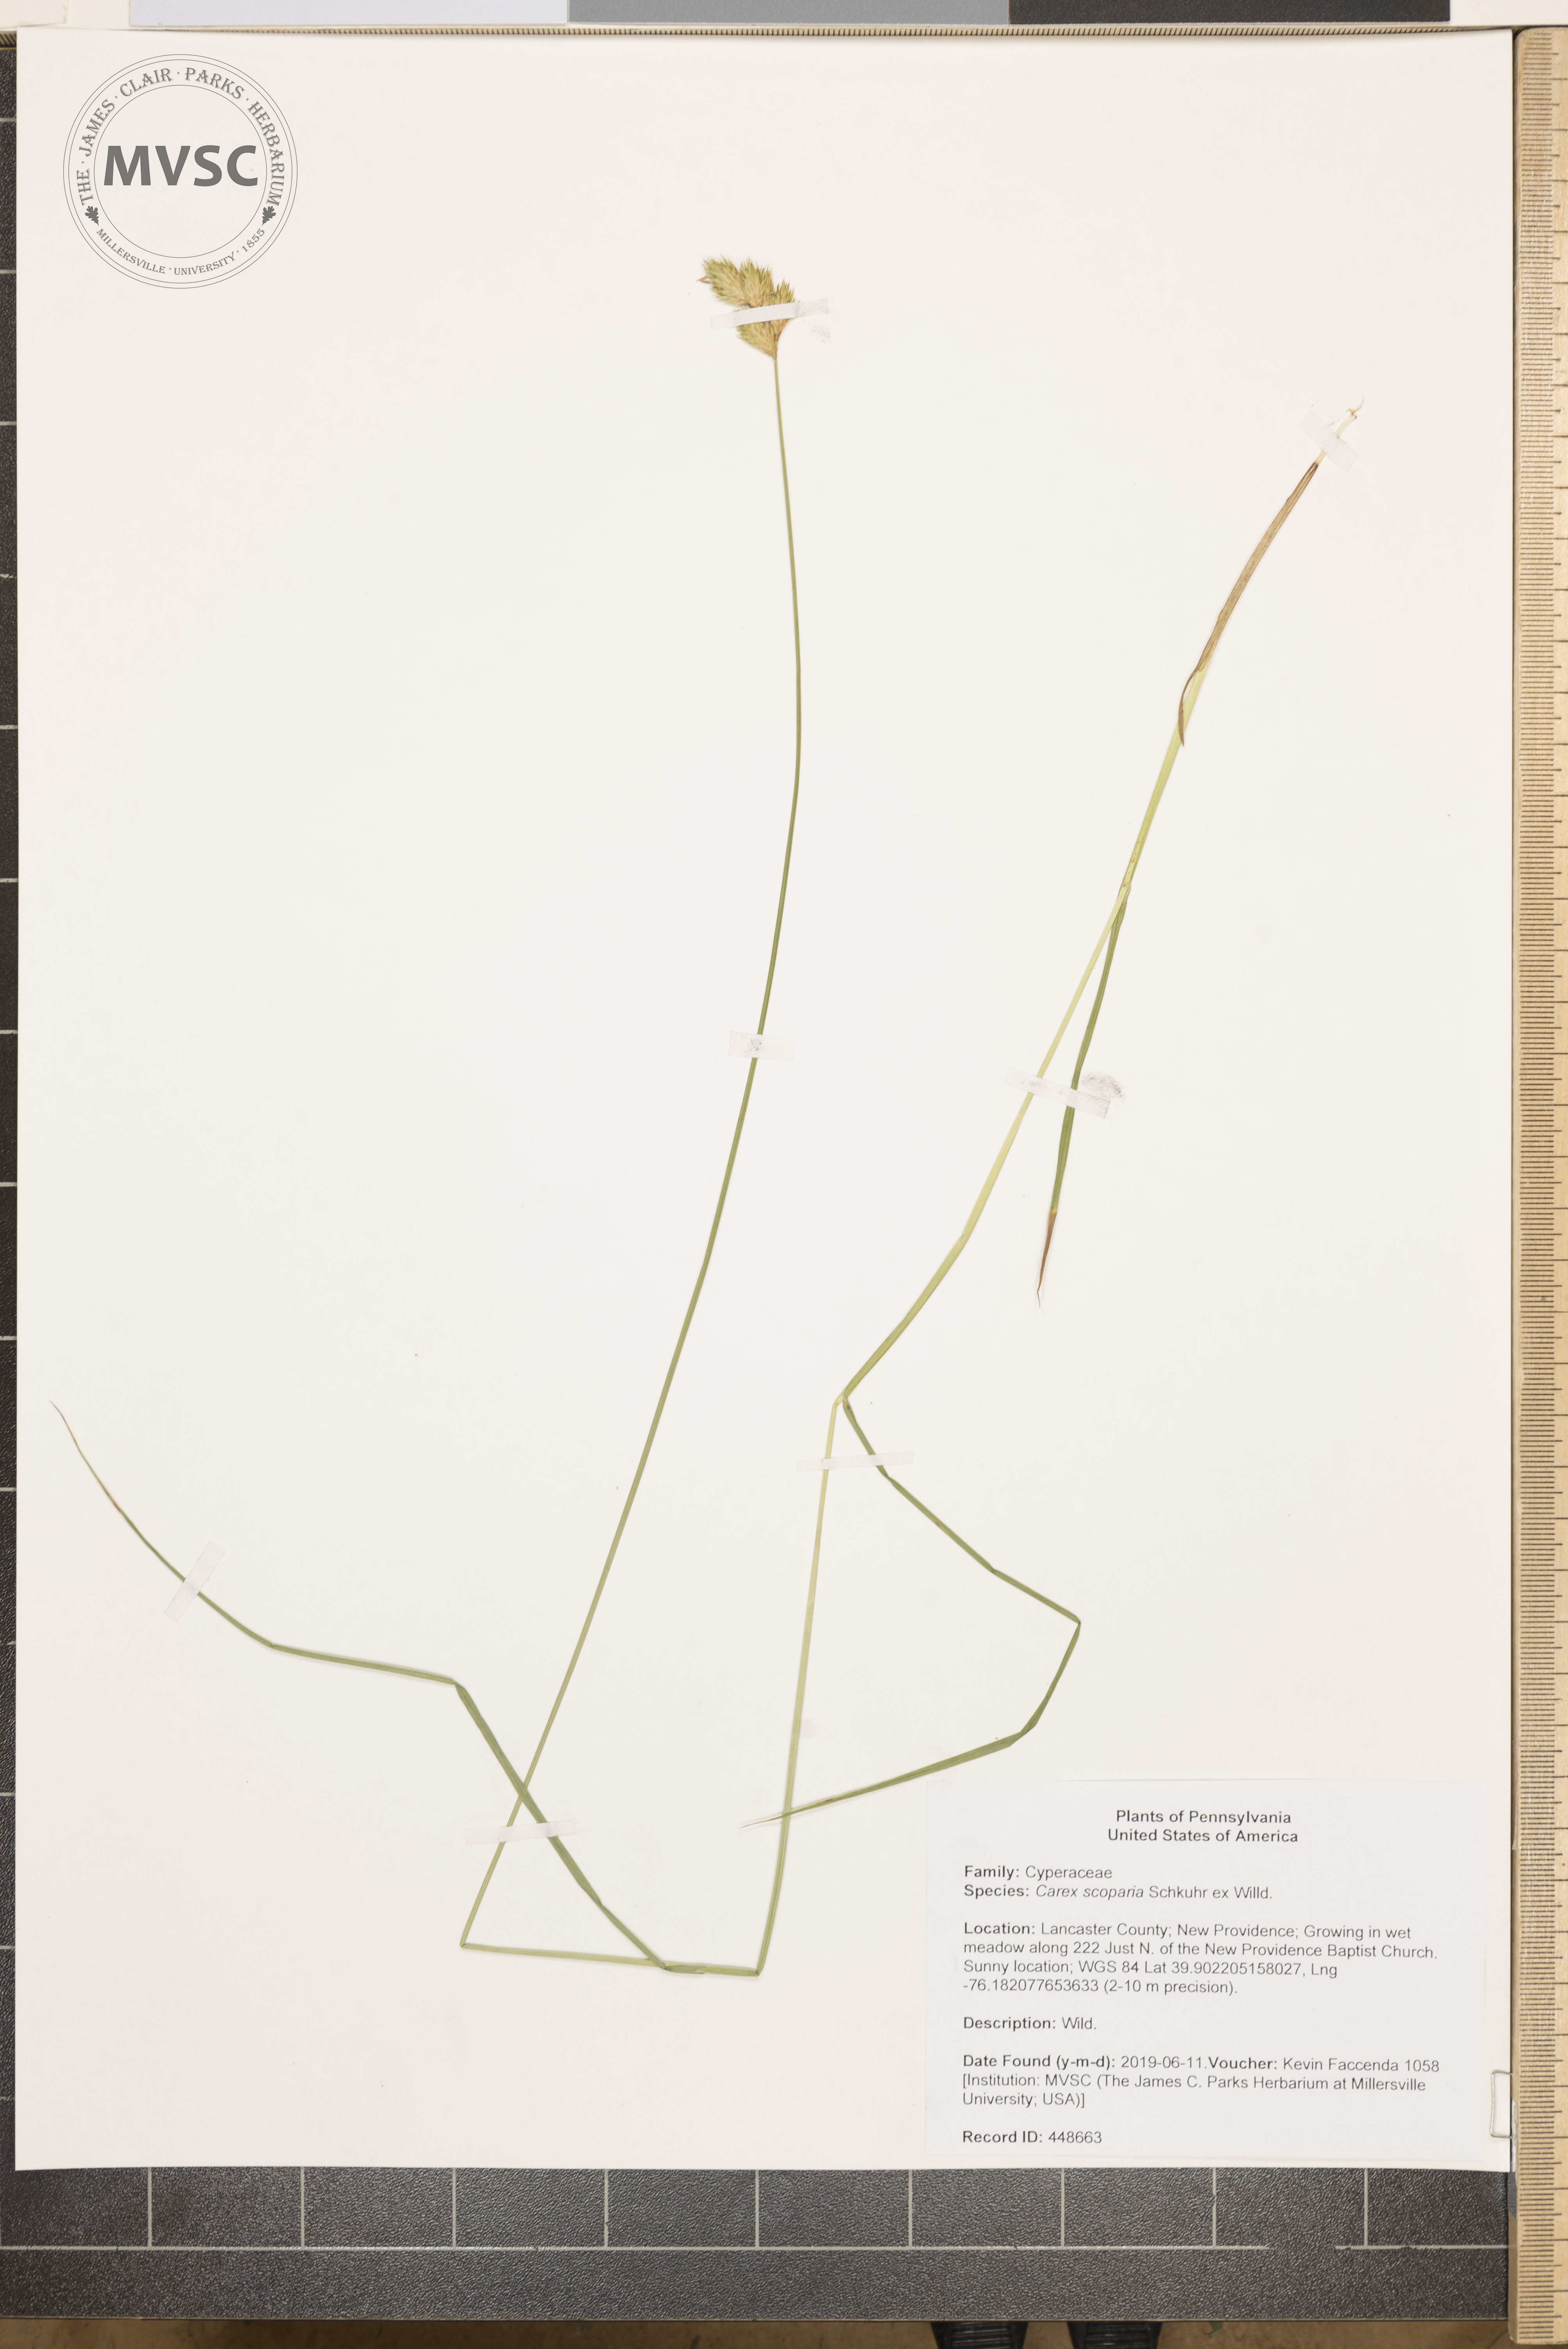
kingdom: Plantae
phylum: Tracheophyta
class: Liliopsida
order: Poales
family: Cyperaceae
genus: Carex
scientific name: Carex scoparia
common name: Broom sedge
